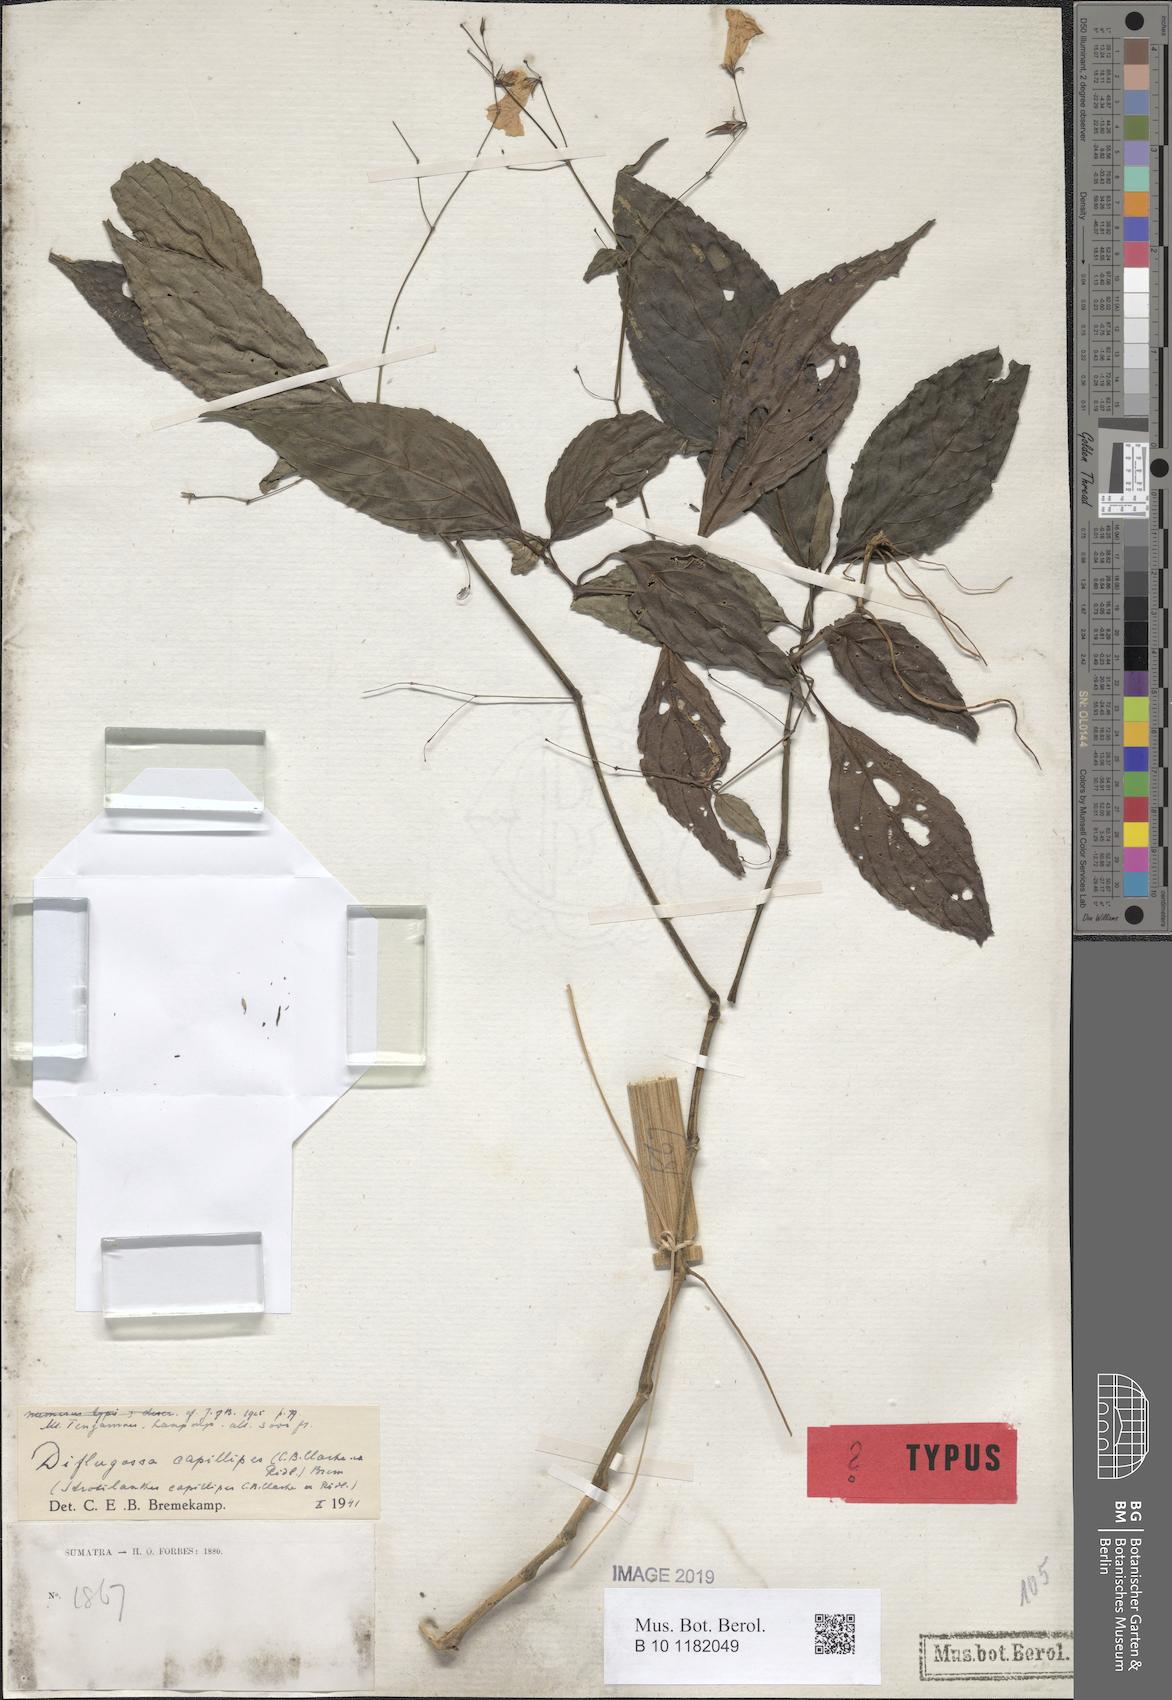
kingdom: Plantae
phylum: Tracheophyta
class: Magnoliopsida
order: Lamiales
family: Acanthaceae
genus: Strobilanthes
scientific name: Strobilanthes capillipes
